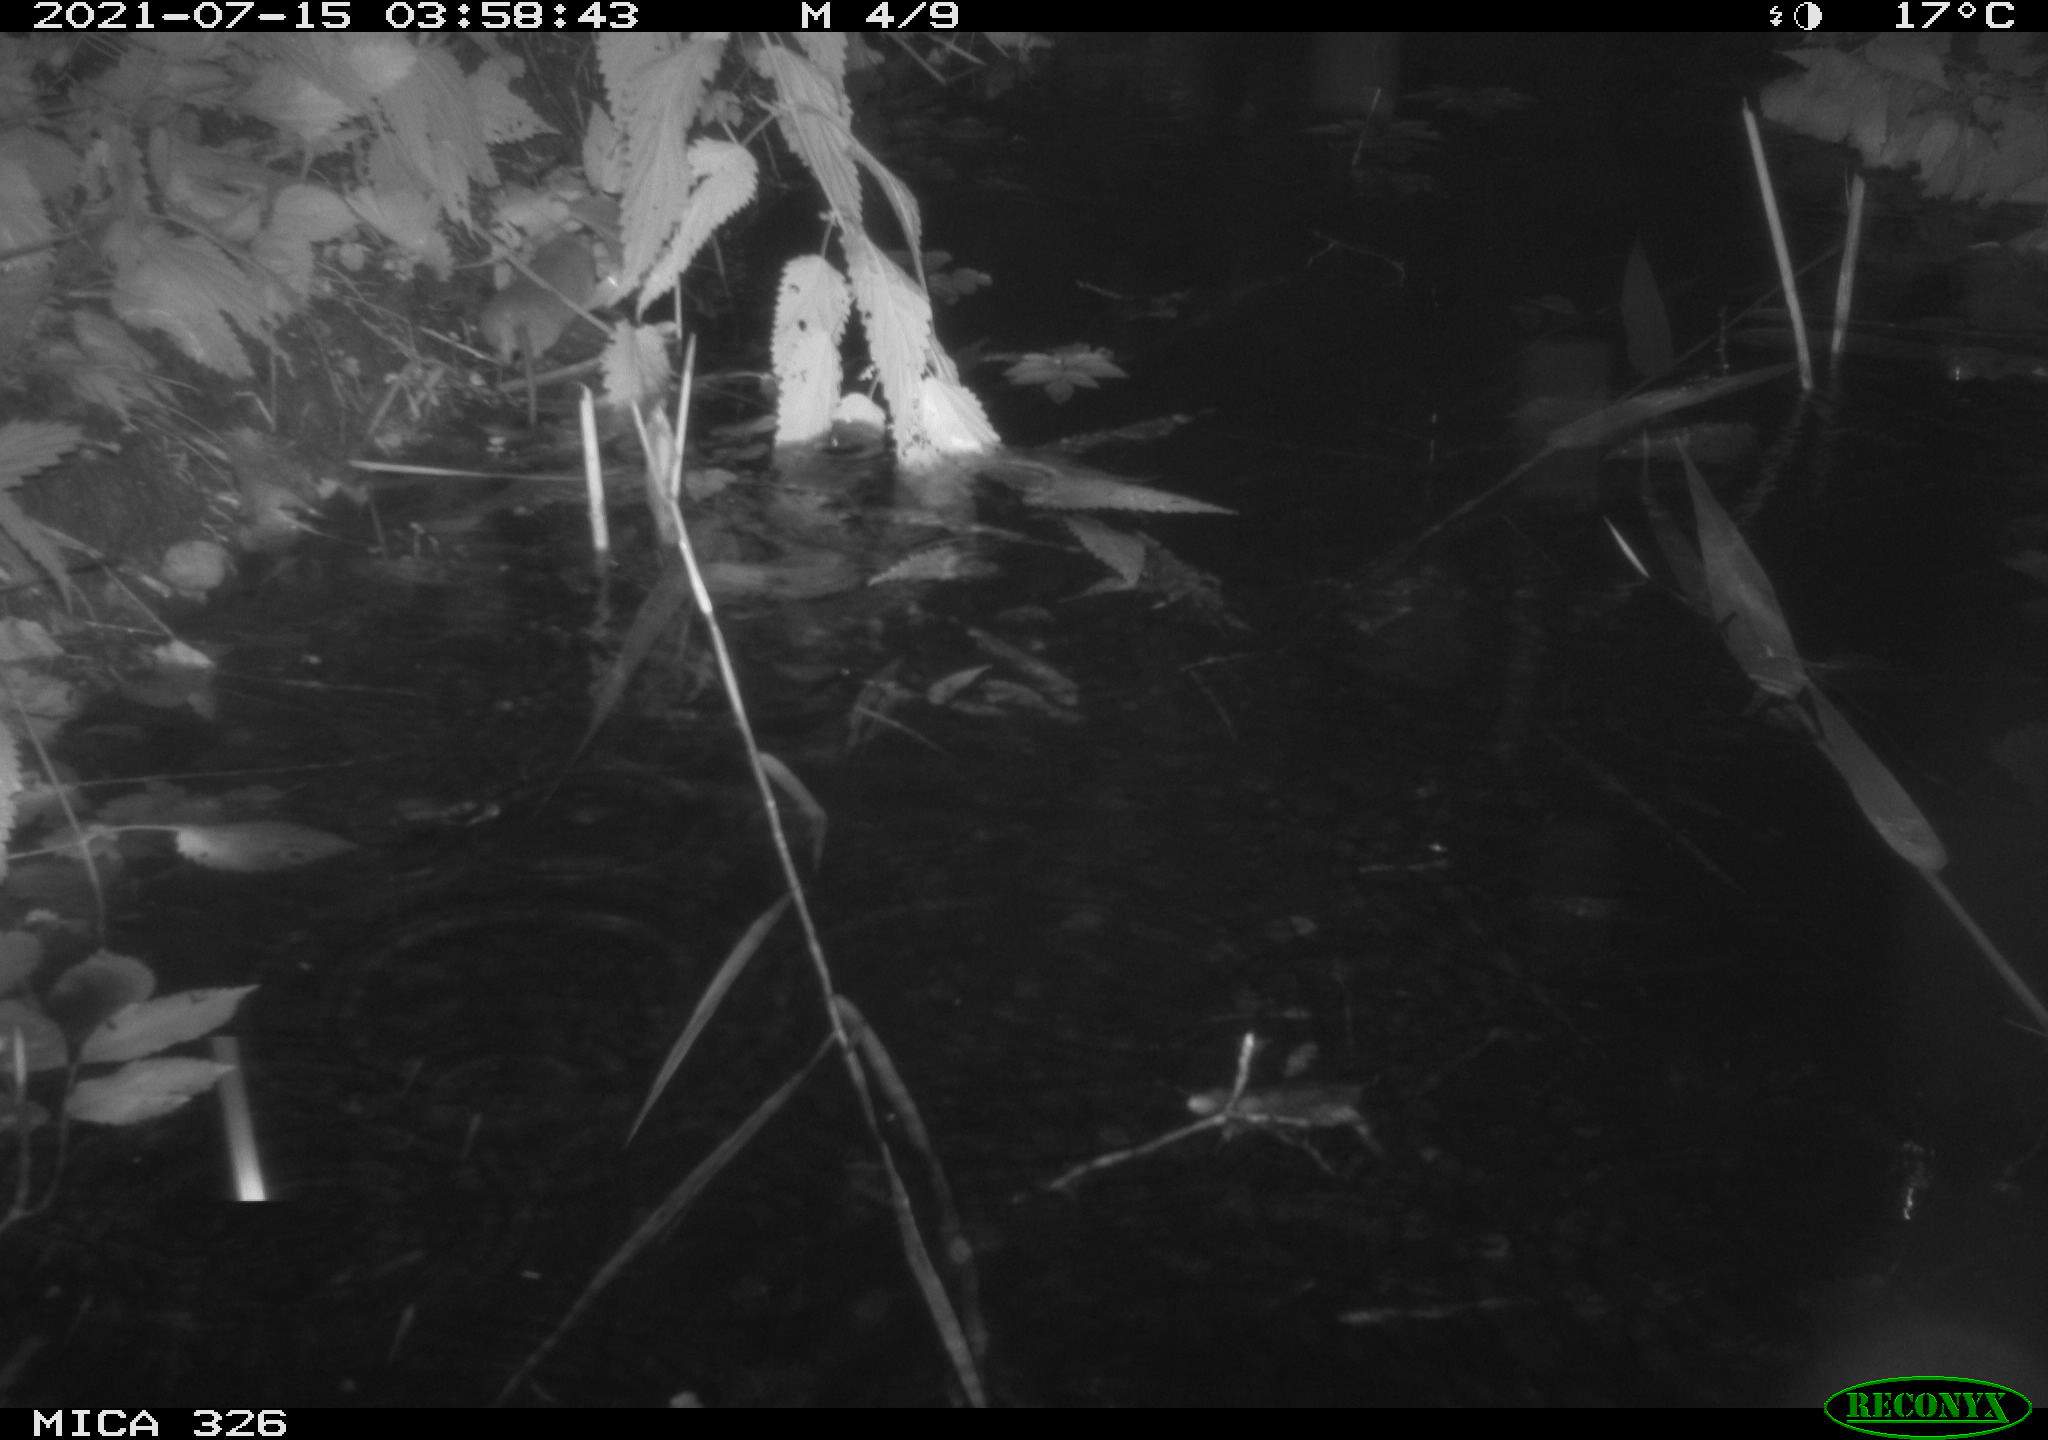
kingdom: Animalia
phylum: Chordata
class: Mammalia
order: Rodentia
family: Muridae
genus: Rattus
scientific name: Rattus norvegicus
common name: Brown rat
